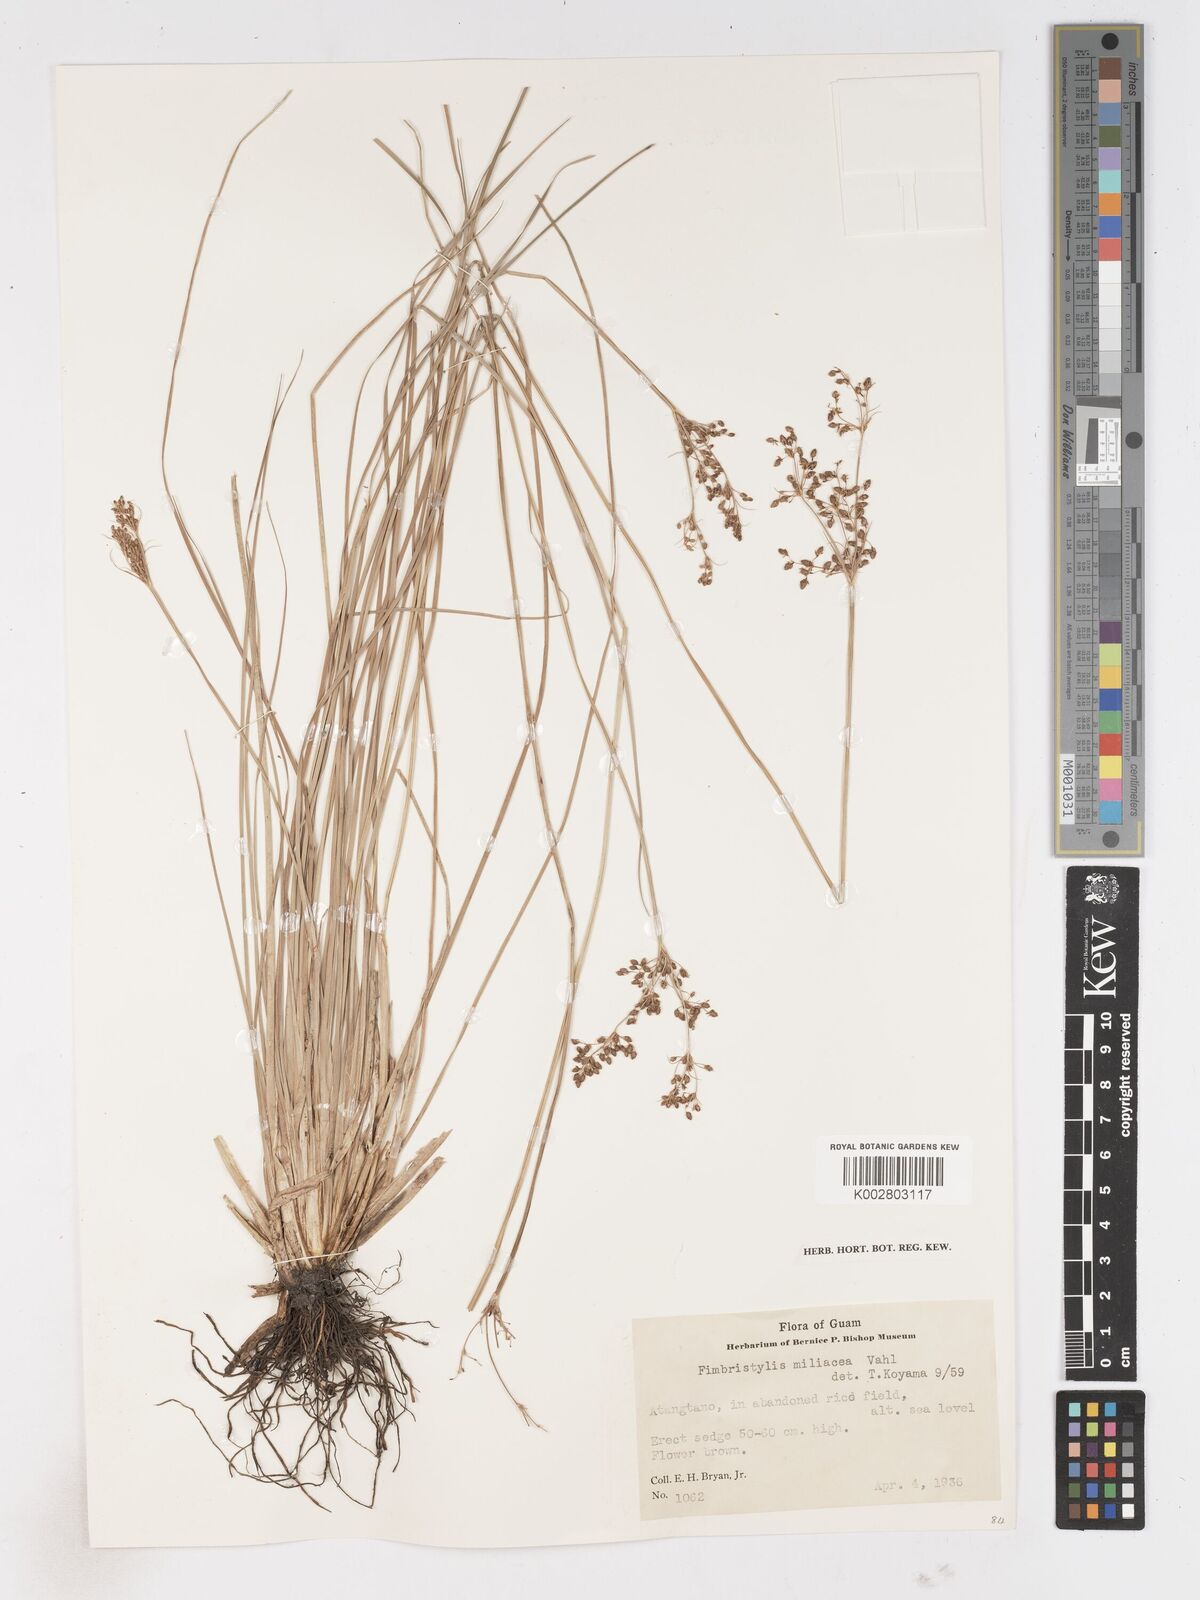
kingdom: Plantae
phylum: Tracheophyta
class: Liliopsida
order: Poales
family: Cyperaceae
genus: Fimbristylis
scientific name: Fimbristylis littoralis
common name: Fimbry
